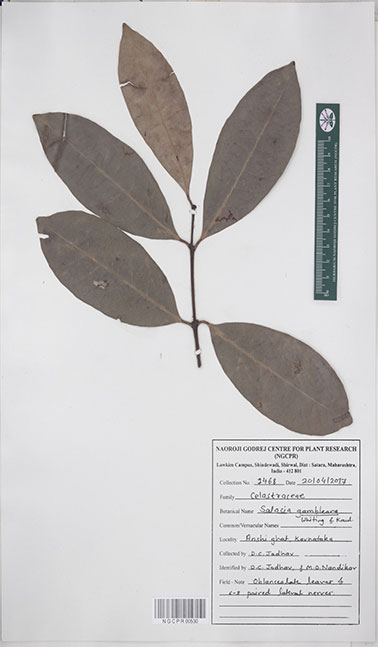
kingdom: Plantae
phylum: Tracheophyta
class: Magnoliopsida
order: Celastrales
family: Celastraceae
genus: Salacia
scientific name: Salacia gambleana
